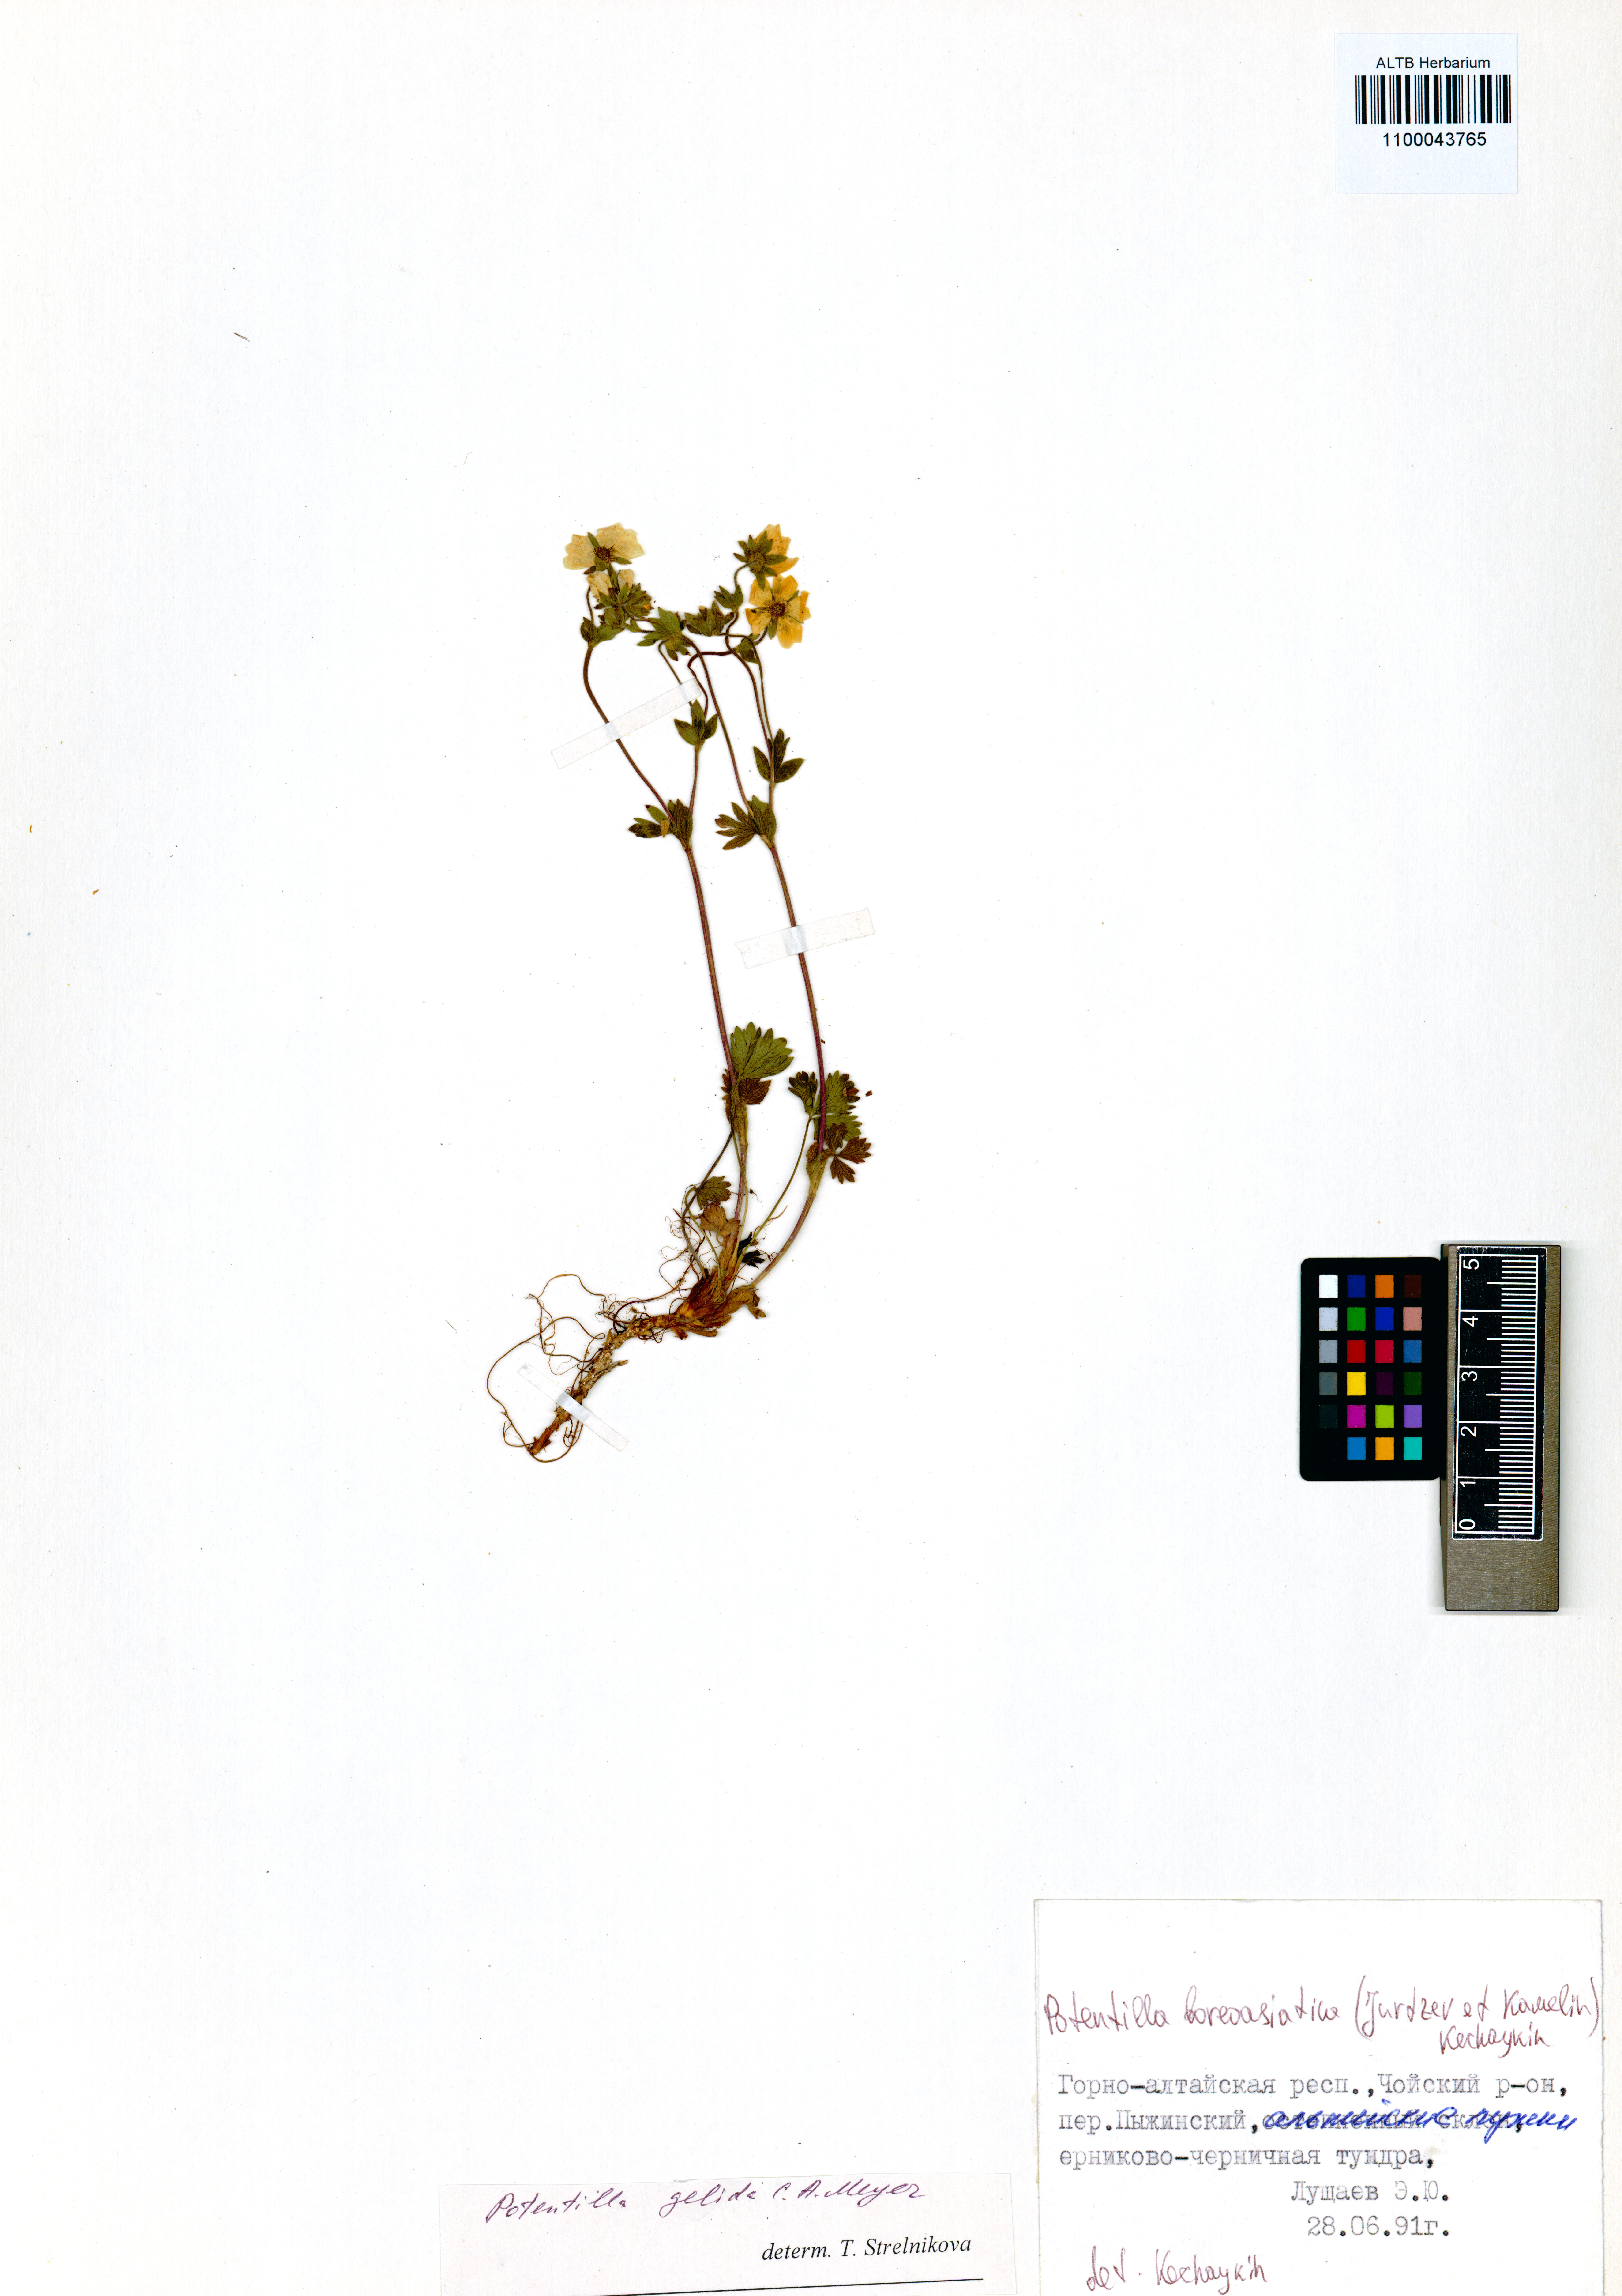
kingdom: Plantae
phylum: Tracheophyta
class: Magnoliopsida
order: Rosales
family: Rosaceae
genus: Potentilla
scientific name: Potentilla
